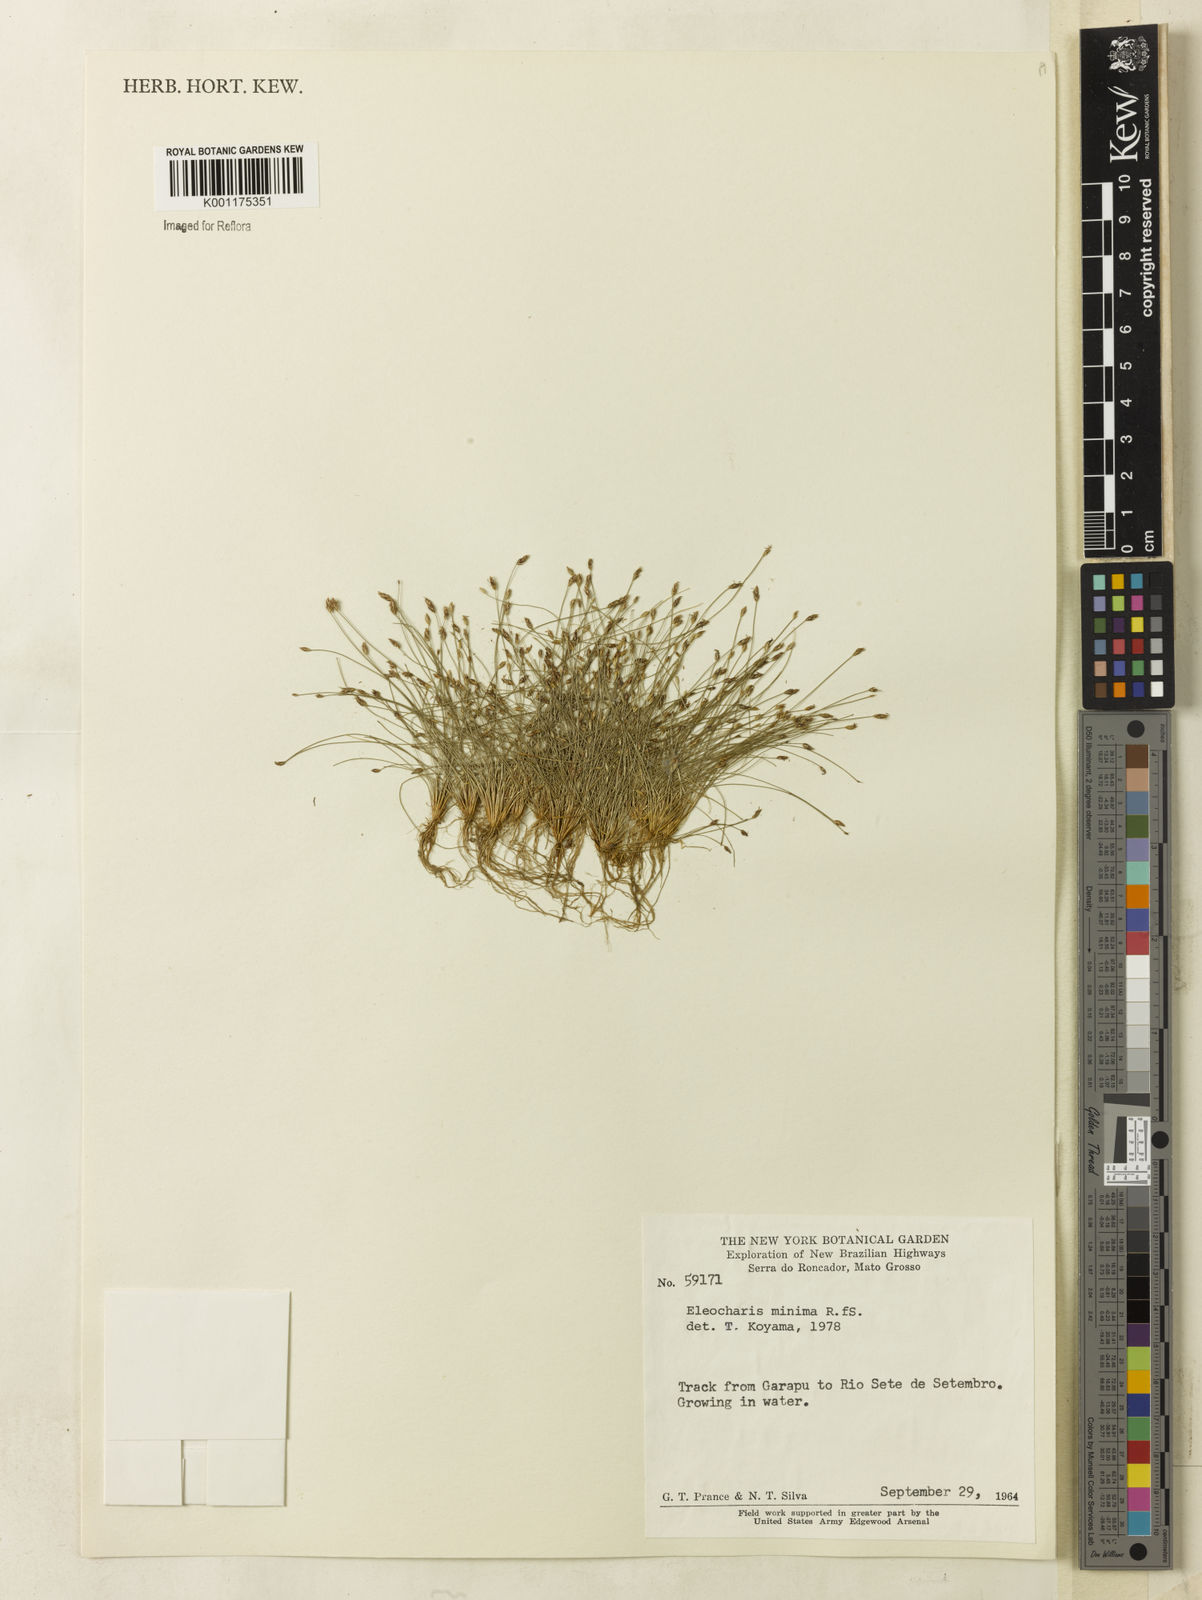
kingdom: Plantae
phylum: Tracheophyta
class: Liliopsida
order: Poales
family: Cyperaceae
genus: Eleocharis
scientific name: Eleocharis minima
